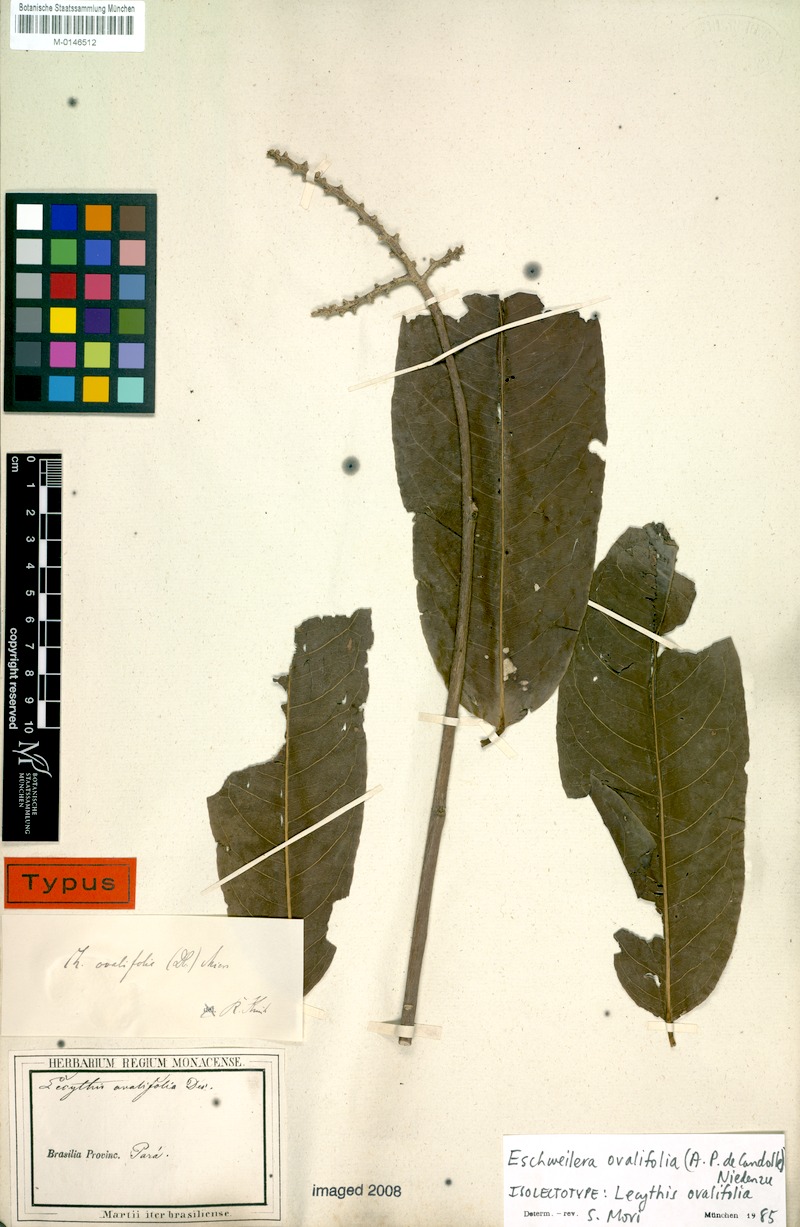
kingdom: Plantae
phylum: Tracheophyta
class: Magnoliopsida
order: Ericales
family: Lecythidaceae
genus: Eschweilera
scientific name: Eschweilera ovalifolia
